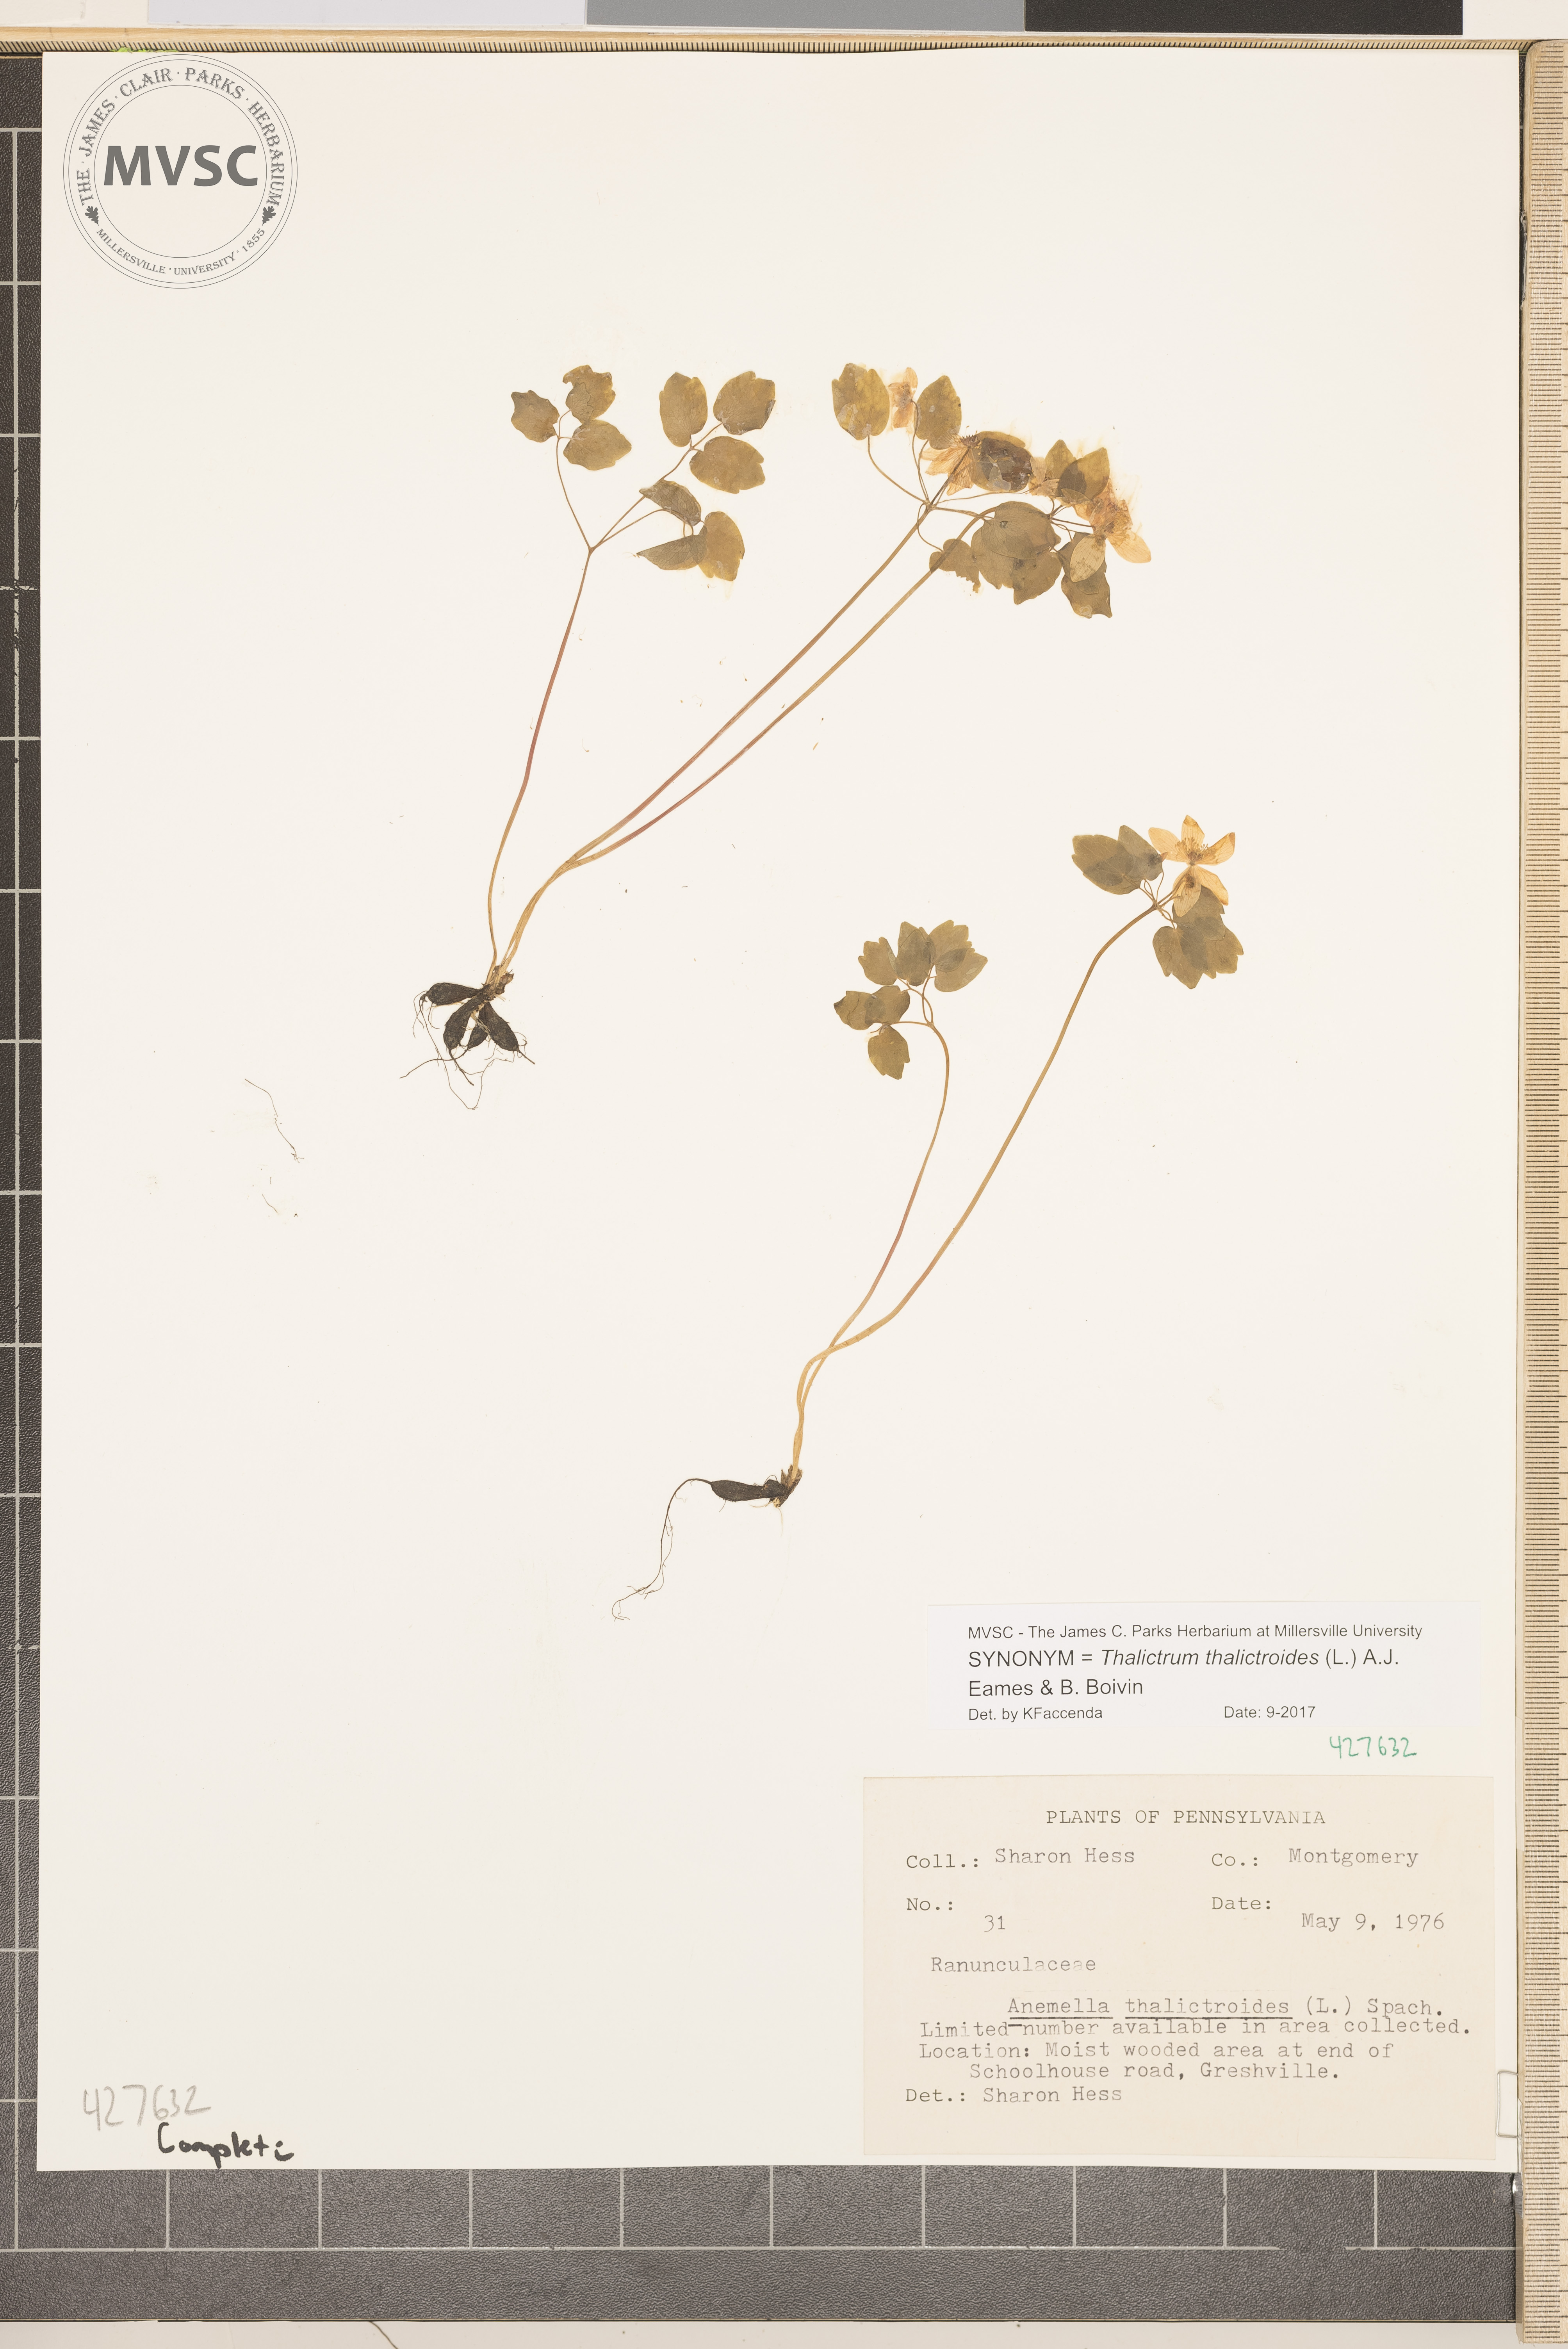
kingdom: Plantae
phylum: Tracheophyta
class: Magnoliopsida
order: Ranunculales
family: Ranunculaceae
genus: Thalictrum
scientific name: Thalictrum thalictroides
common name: Rue anemone
